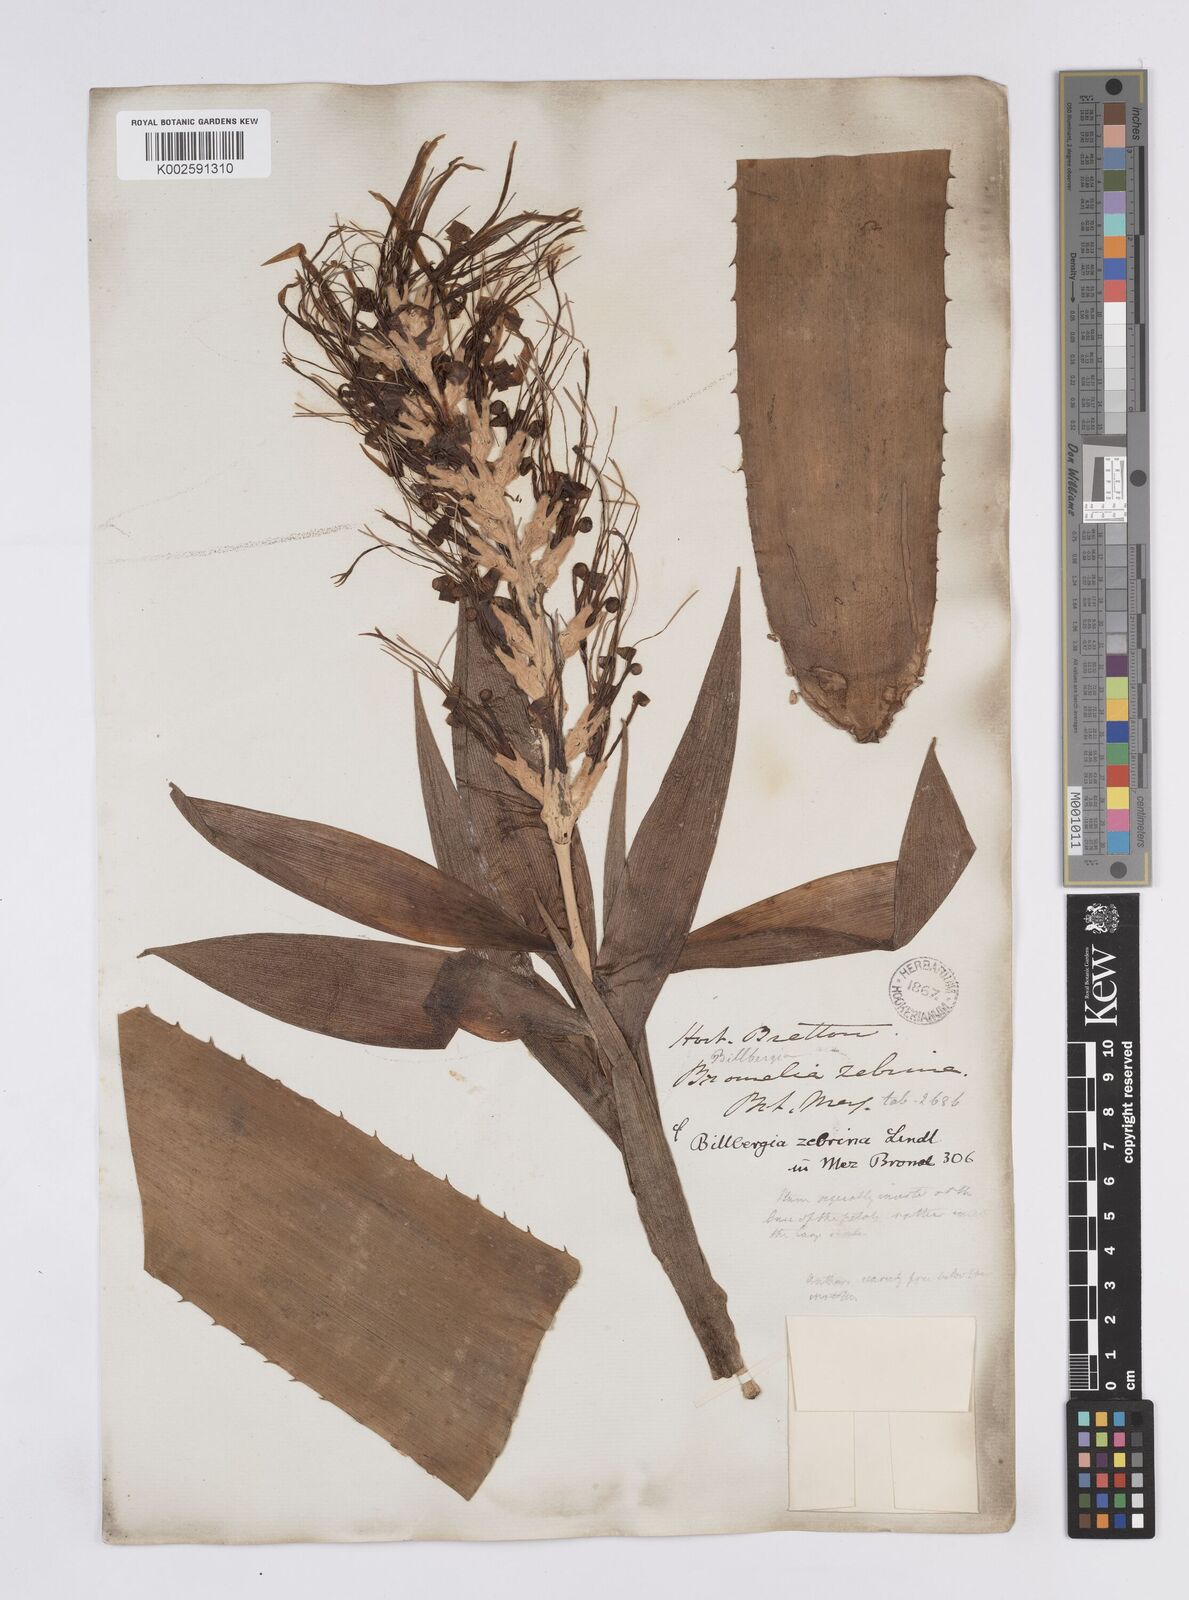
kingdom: Plantae
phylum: Tracheophyta
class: Liliopsida
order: Poales
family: Bromeliaceae
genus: Billbergia
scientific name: Billbergia zebrina
